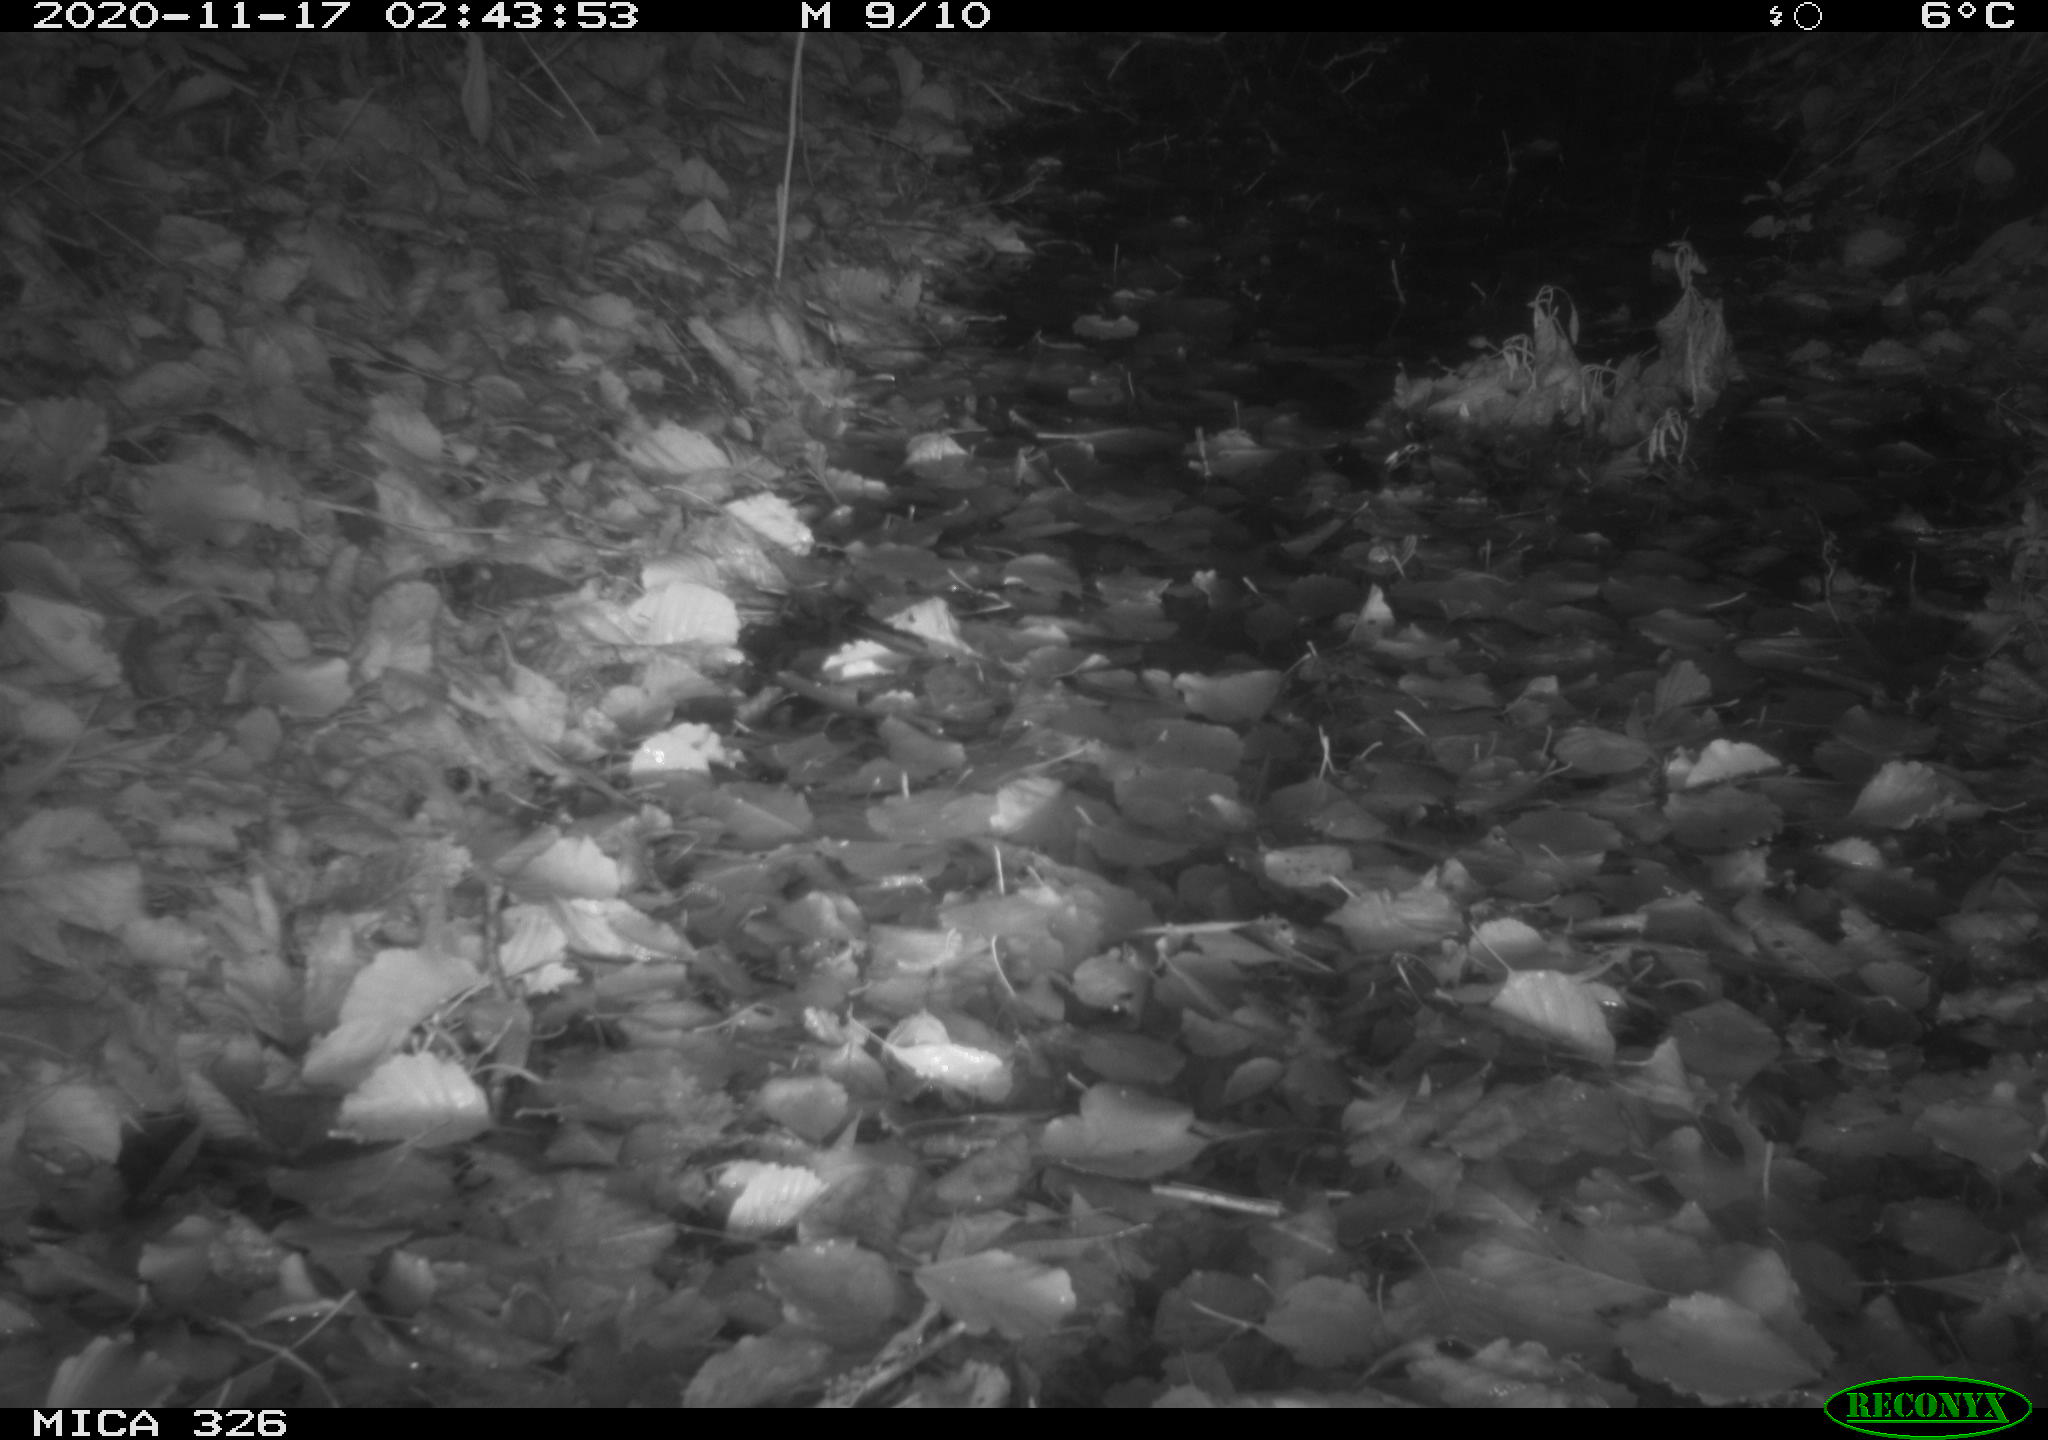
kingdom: Animalia
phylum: Chordata
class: Mammalia
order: Rodentia
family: Muridae
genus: Rattus
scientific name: Rattus norvegicus
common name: Brown rat
